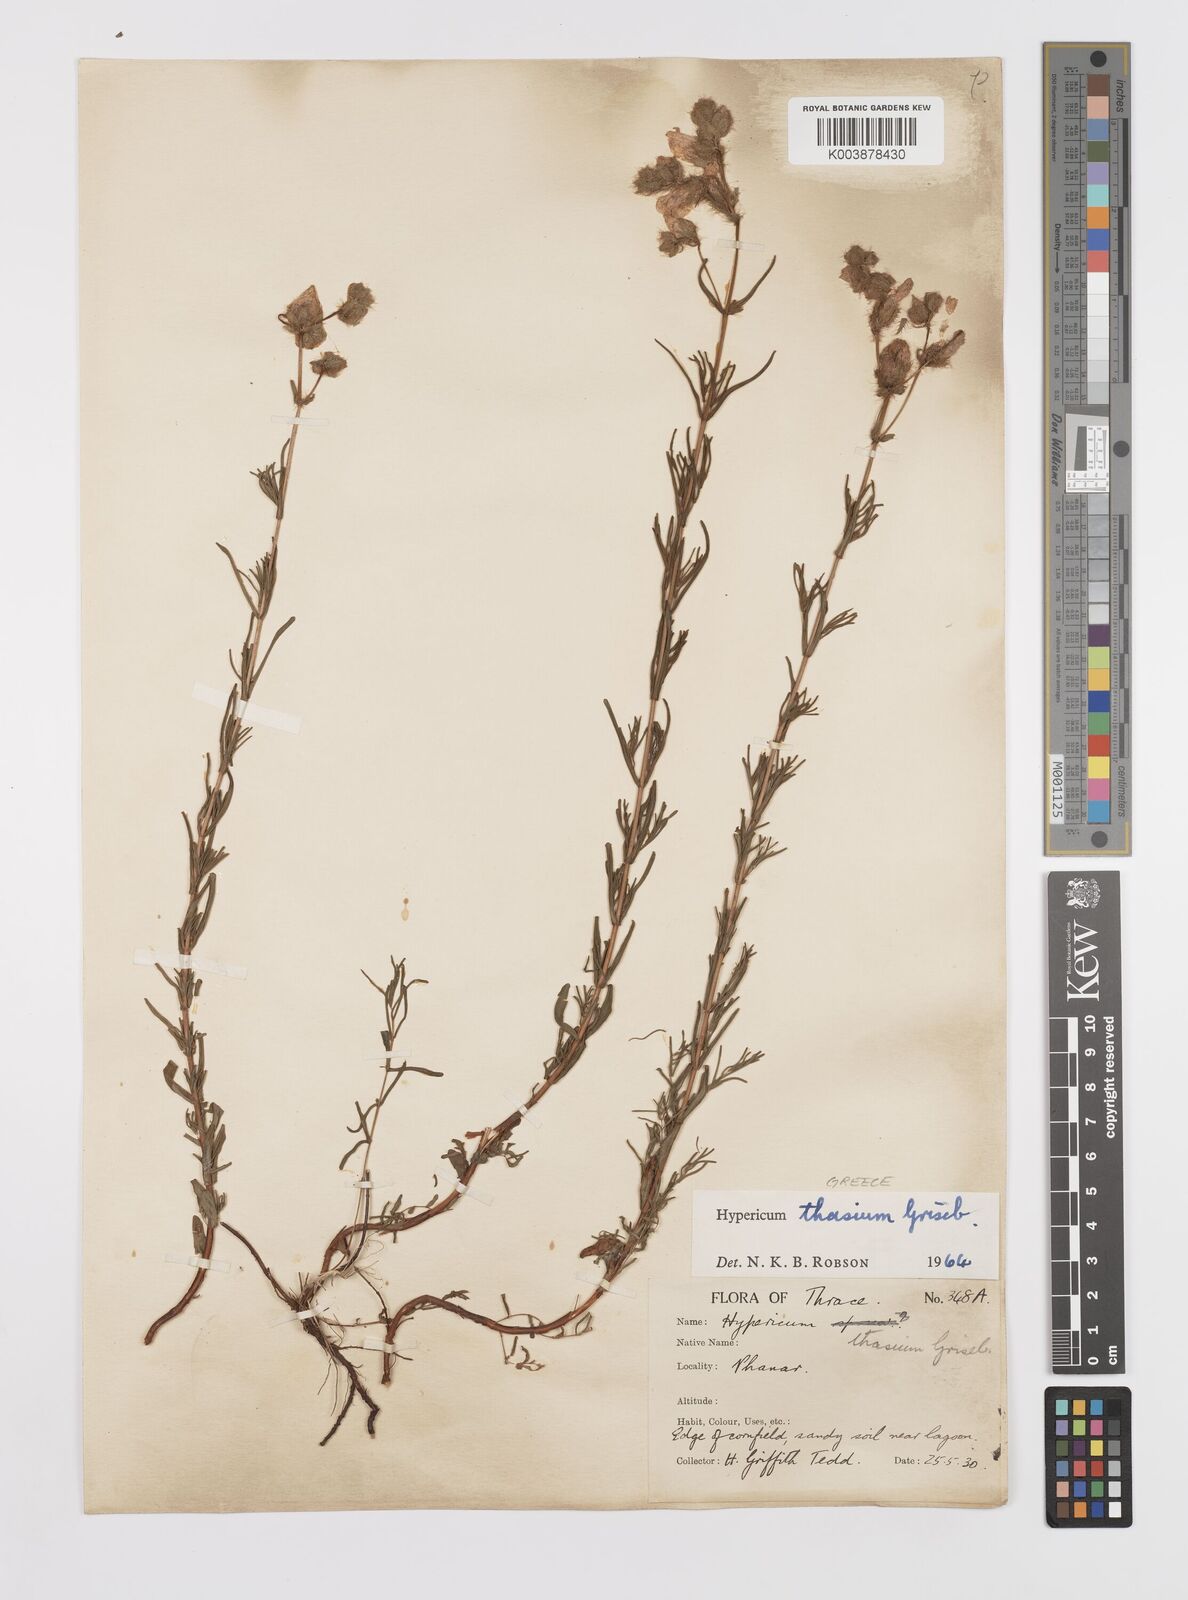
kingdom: Plantae
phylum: Tracheophyta
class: Magnoliopsida
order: Malpighiales
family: Hypericaceae
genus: Hypericum
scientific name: Hypericum thasium
